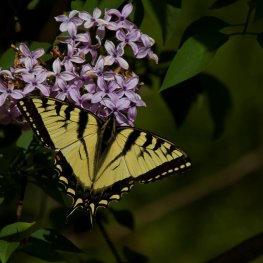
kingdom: Animalia
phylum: Arthropoda
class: Insecta
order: Lepidoptera
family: Papilionidae
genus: Pterourus
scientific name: Pterourus canadensis
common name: Canadian Tiger Swallowtail
